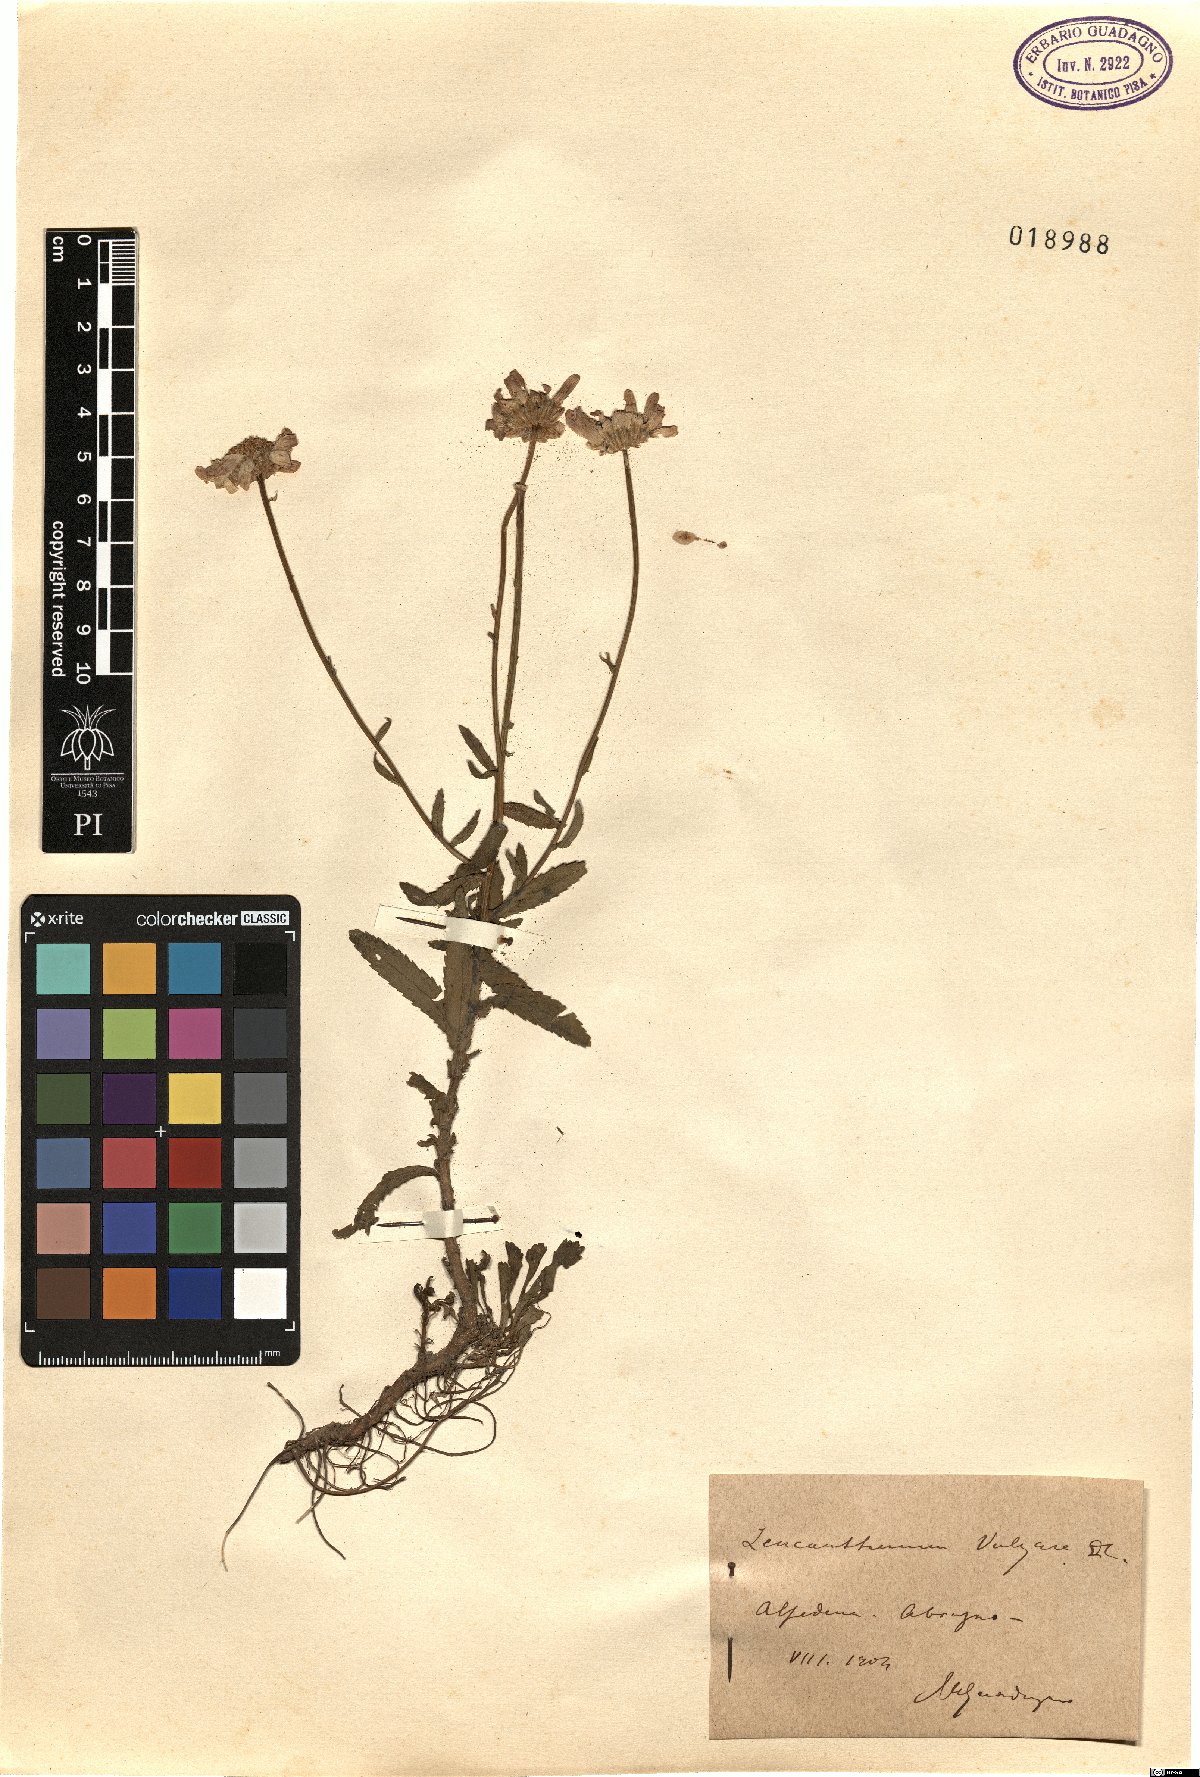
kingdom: Plantae
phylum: Tracheophyta
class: Magnoliopsida
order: Asterales
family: Asteraceae
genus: Leucanthemum
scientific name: Leucanthemum vulgare
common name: Oxeye daisy
